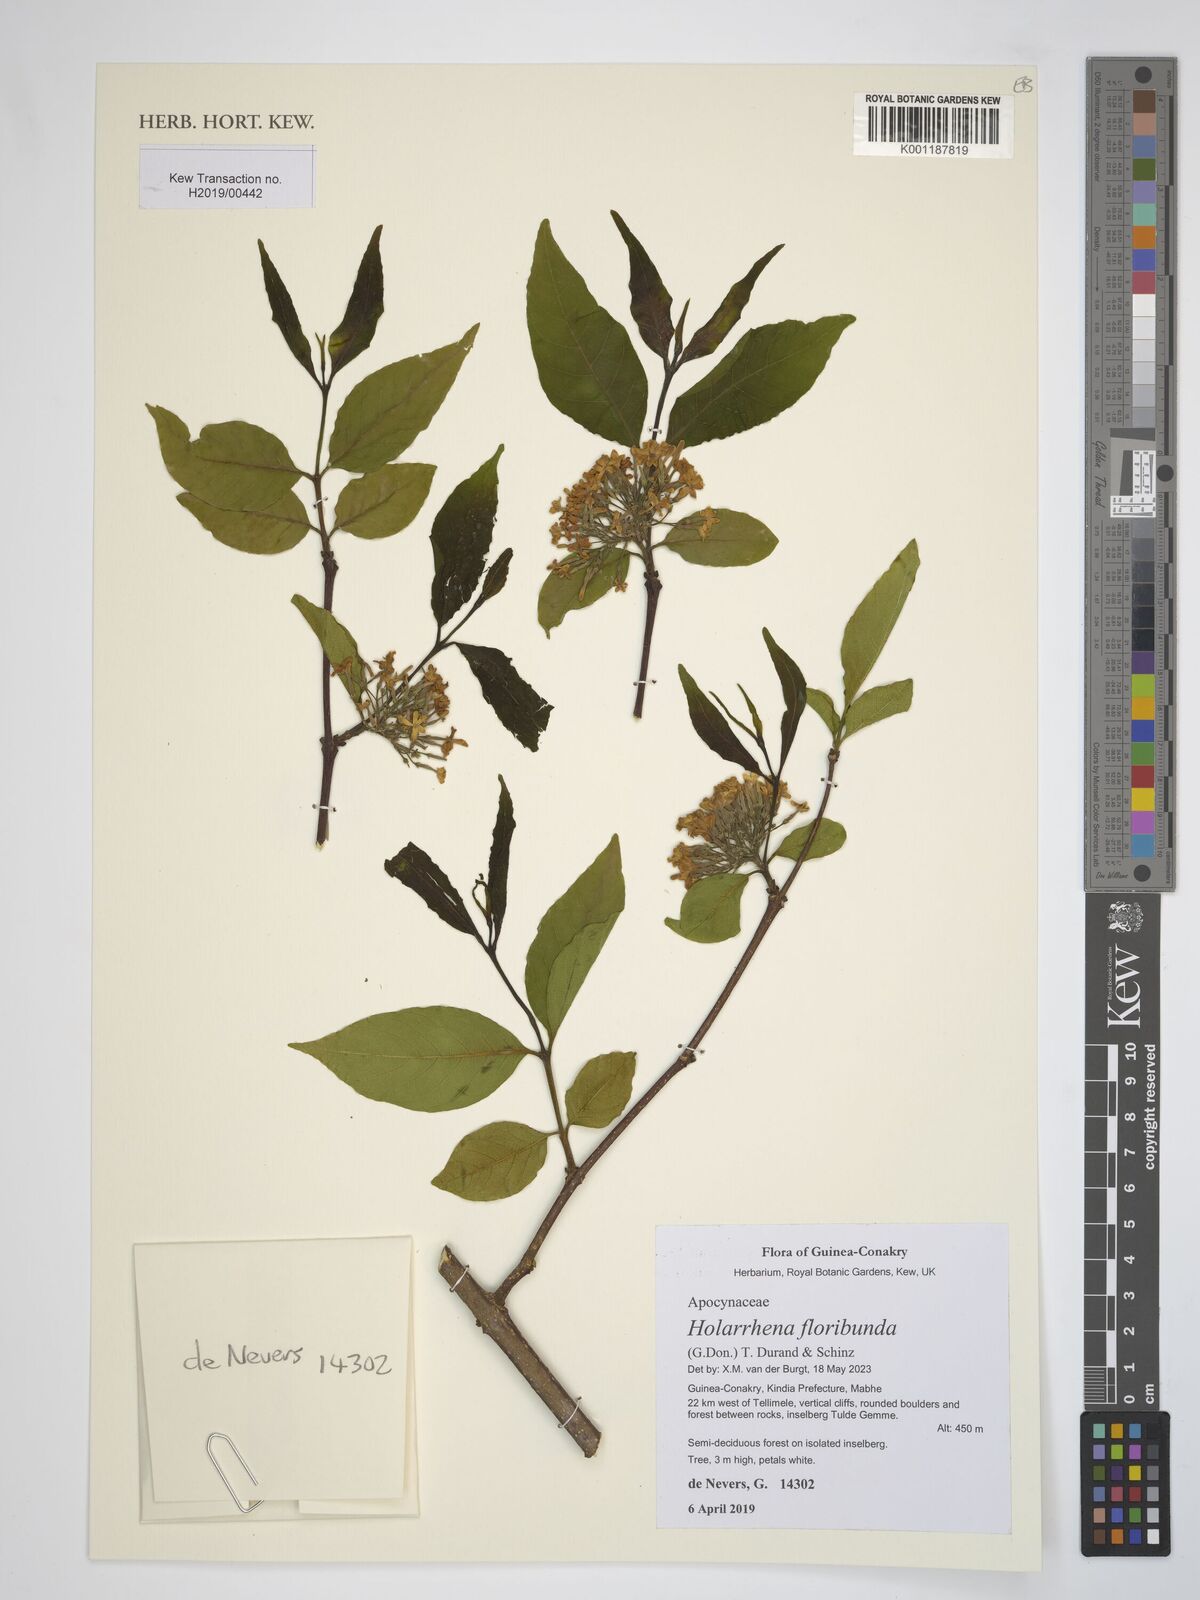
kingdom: Plantae
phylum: Tracheophyta
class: Magnoliopsida
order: Gentianales
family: Apocynaceae
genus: Holarrhena
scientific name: Holarrhena floribunda
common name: Kurchibark
